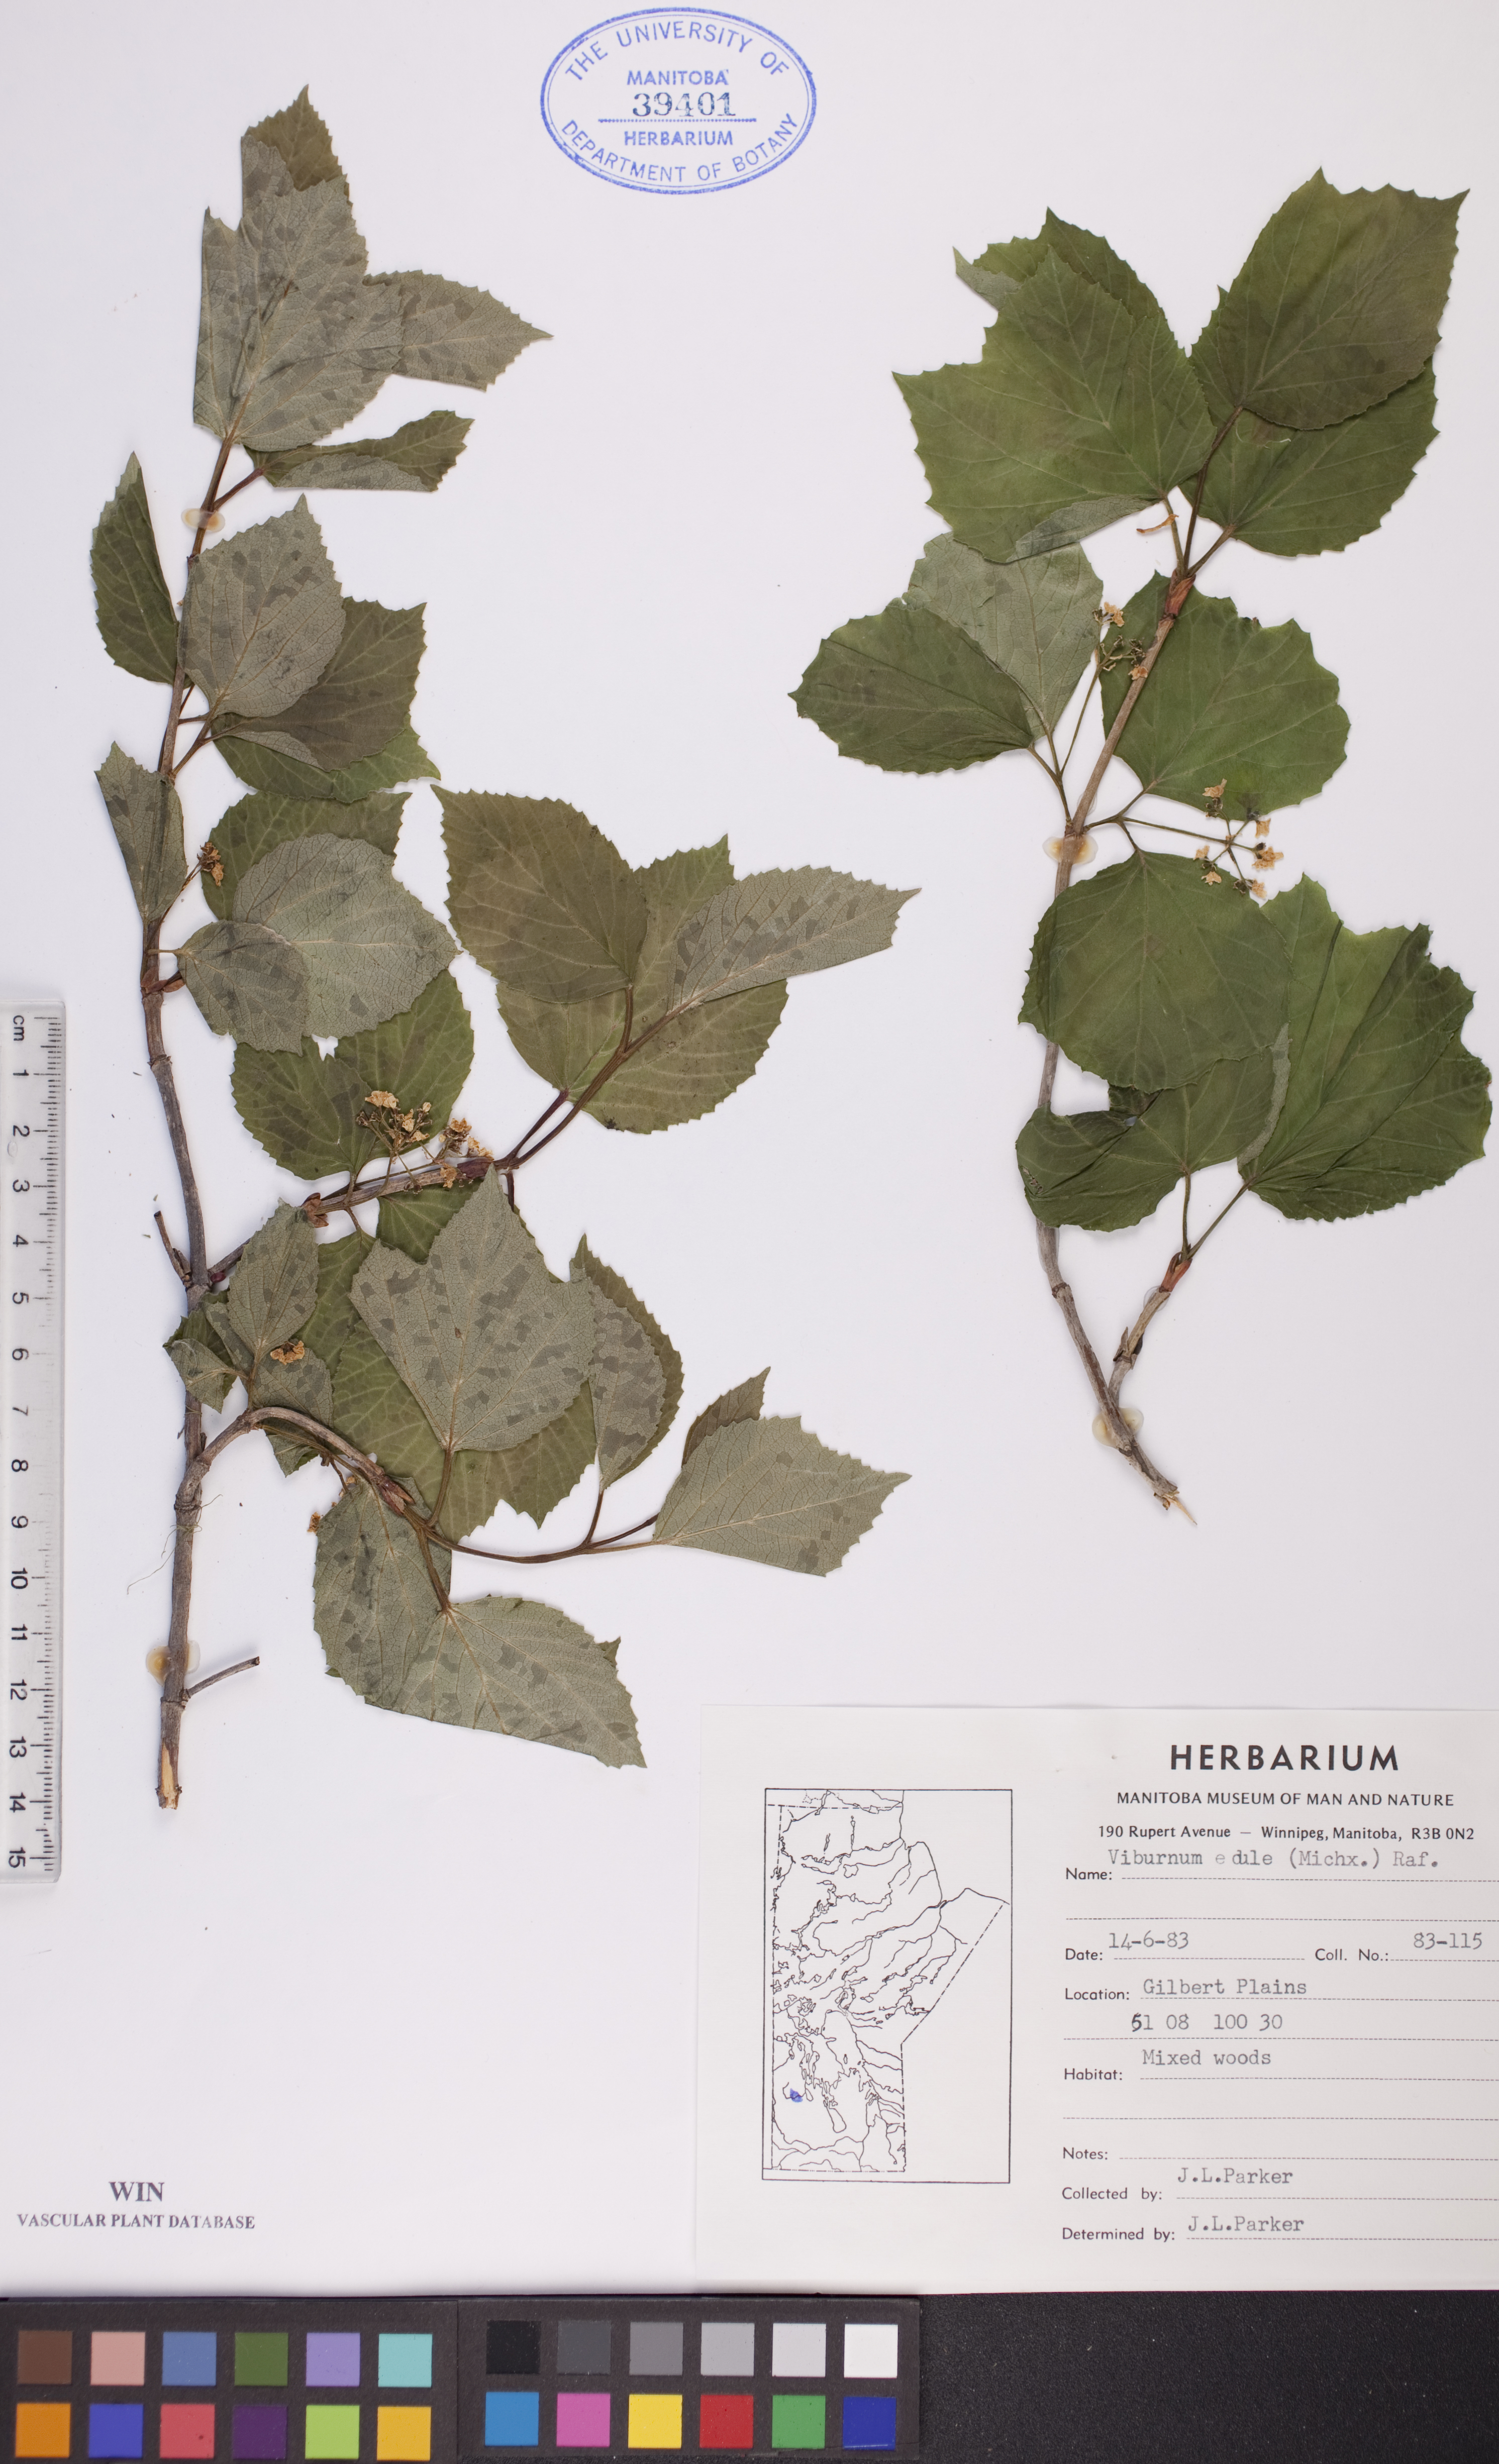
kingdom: Plantae
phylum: Tracheophyta
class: Magnoliopsida
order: Dipsacales
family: Viburnaceae
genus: Viburnum
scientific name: Viburnum edule
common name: Mooseberry
